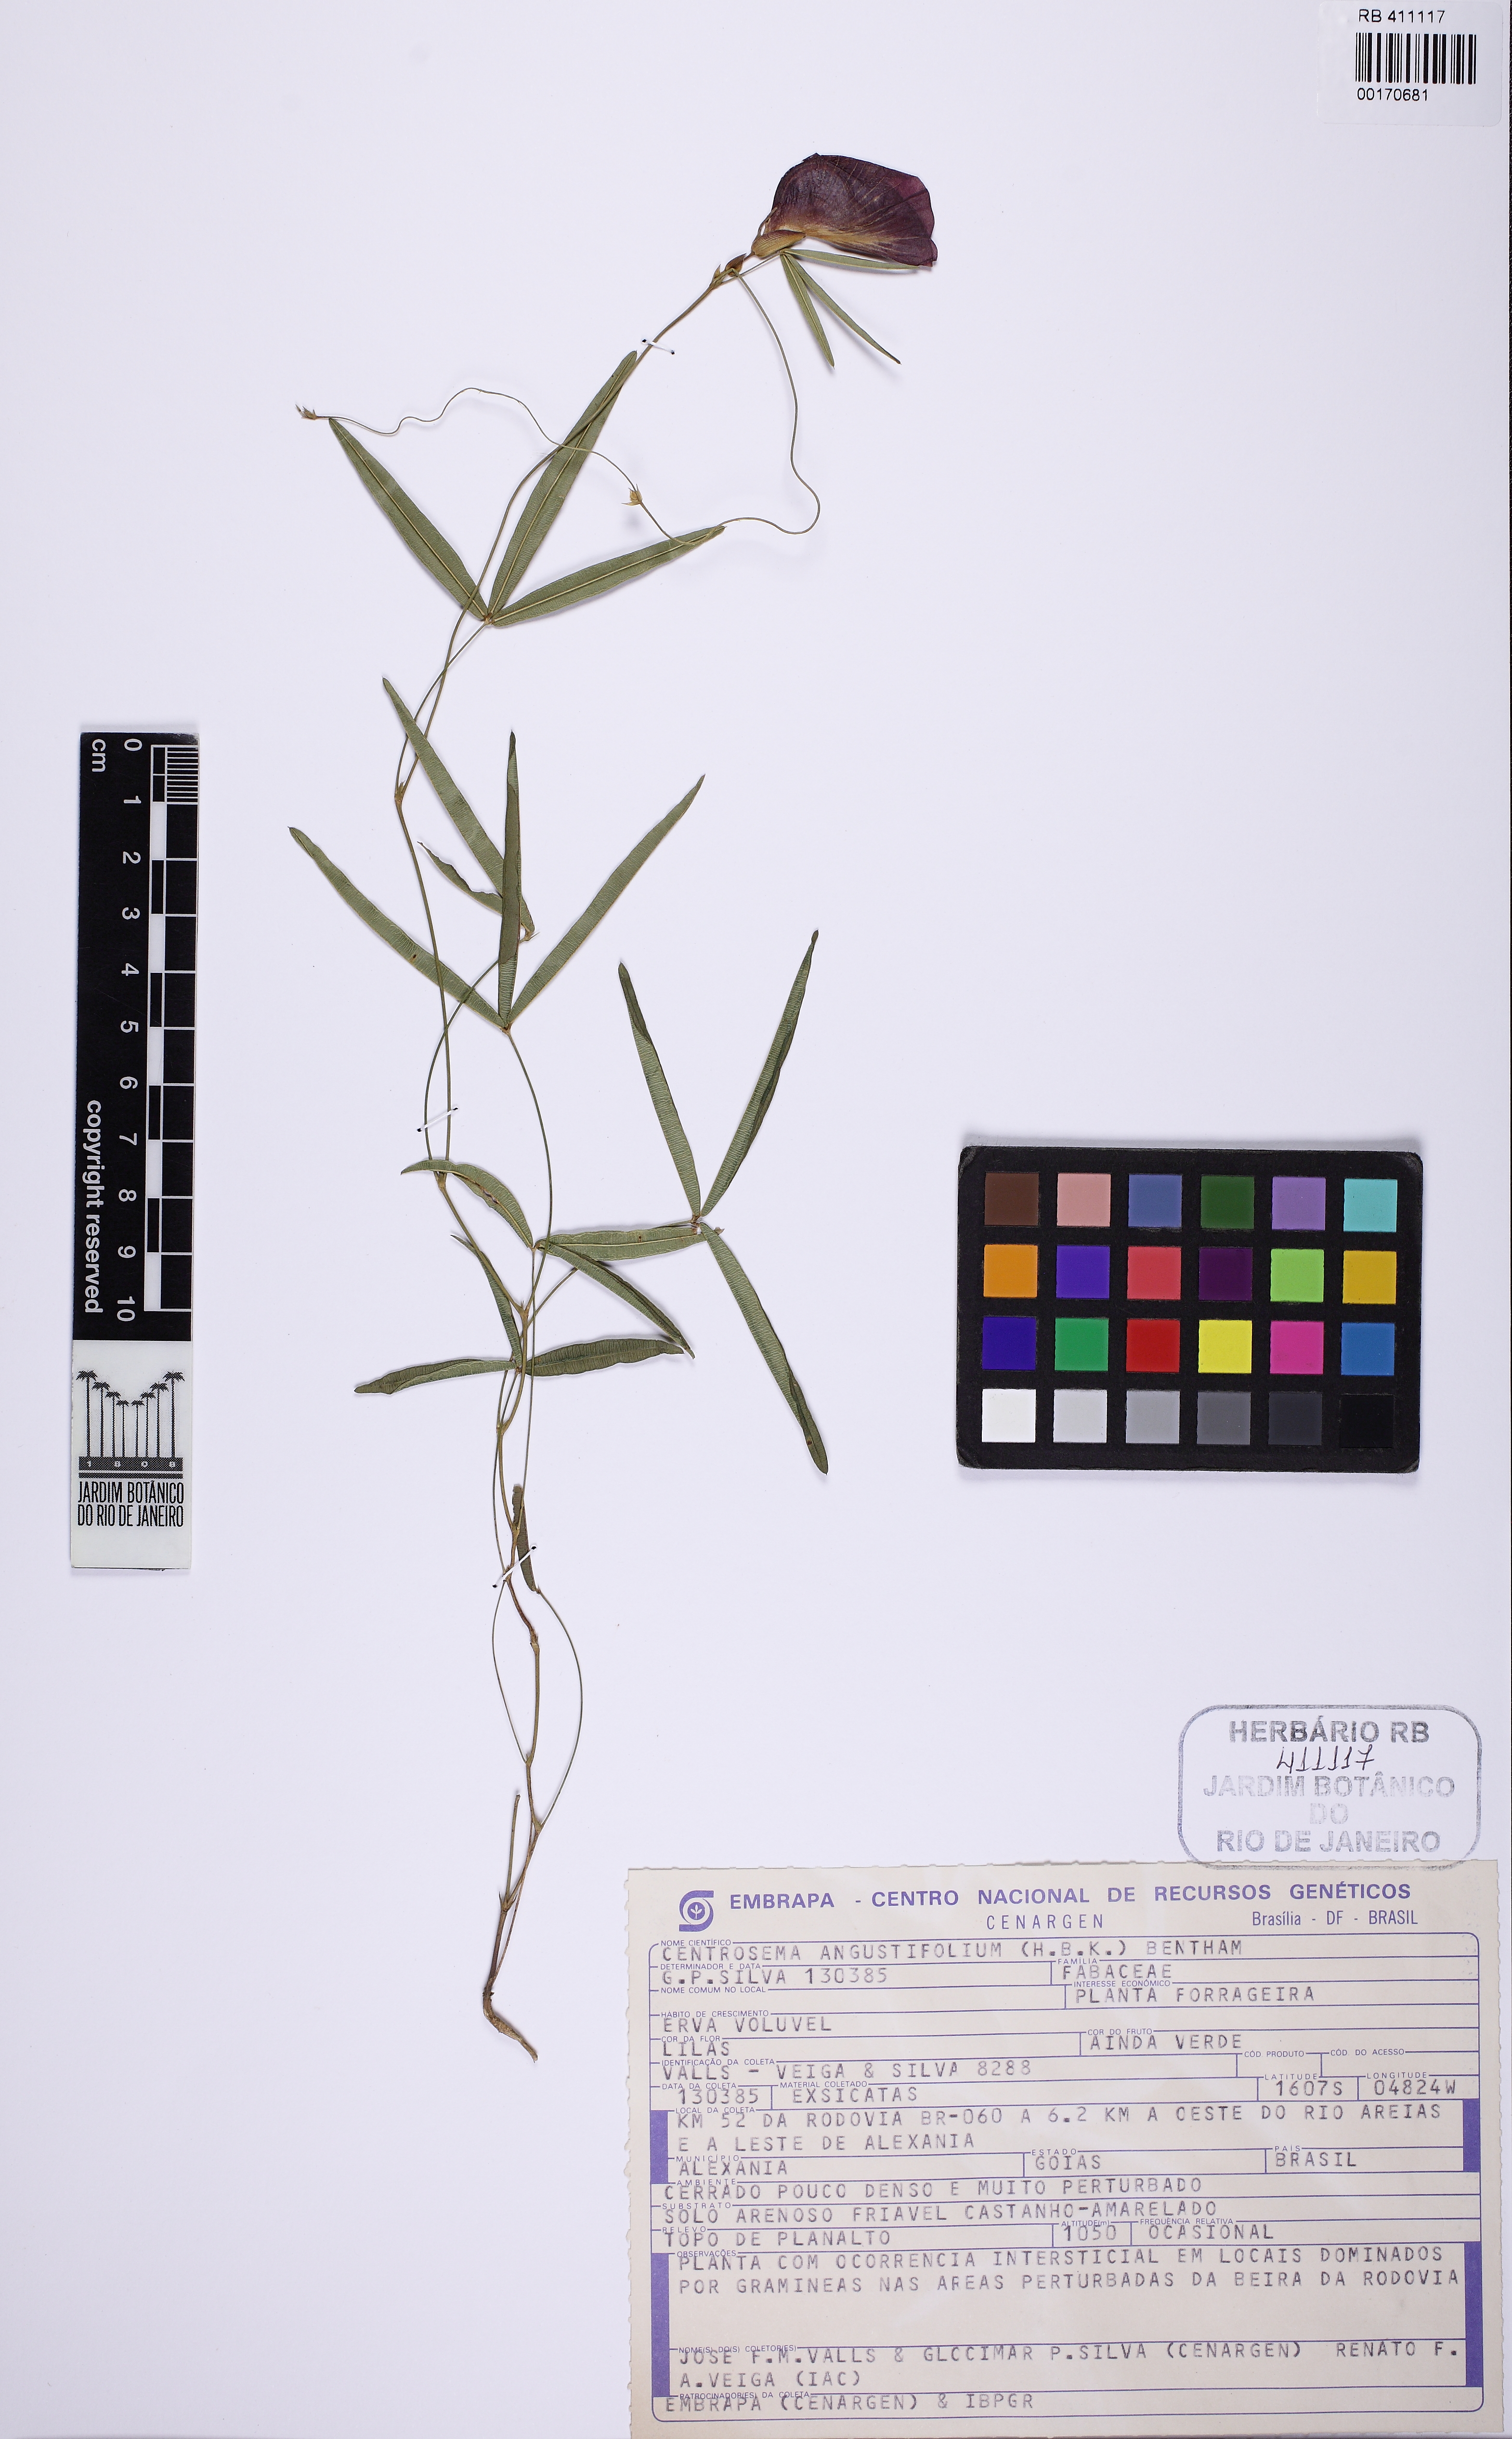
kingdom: Plantae
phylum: Tracheophyta
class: Magnoliopsida
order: Fabales
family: Fabaceae
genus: Centrosema
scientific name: Centrosema angustifolium
